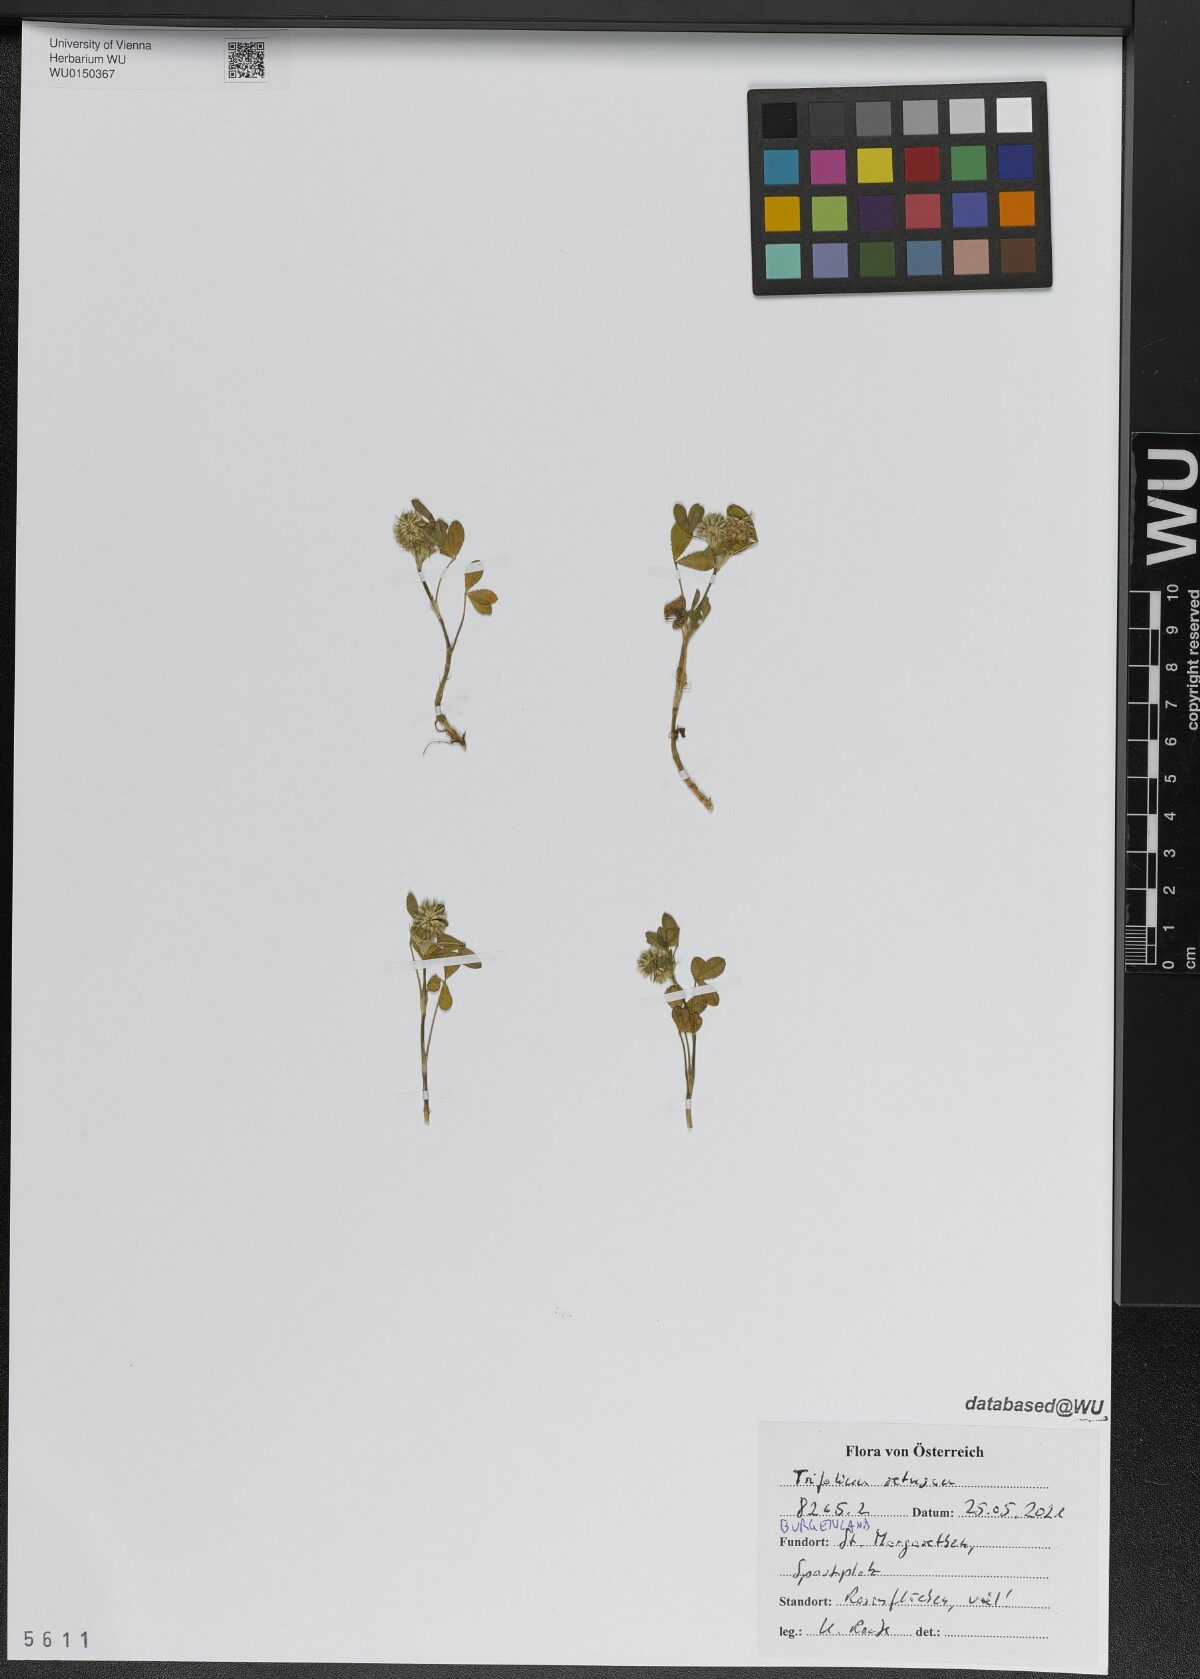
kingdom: Plantae
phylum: Tracheophyta
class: Magnoliopsida
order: Fabales
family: Fabaceae
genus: Trifolium
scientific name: Trifolium retusum
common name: Teasel clover
